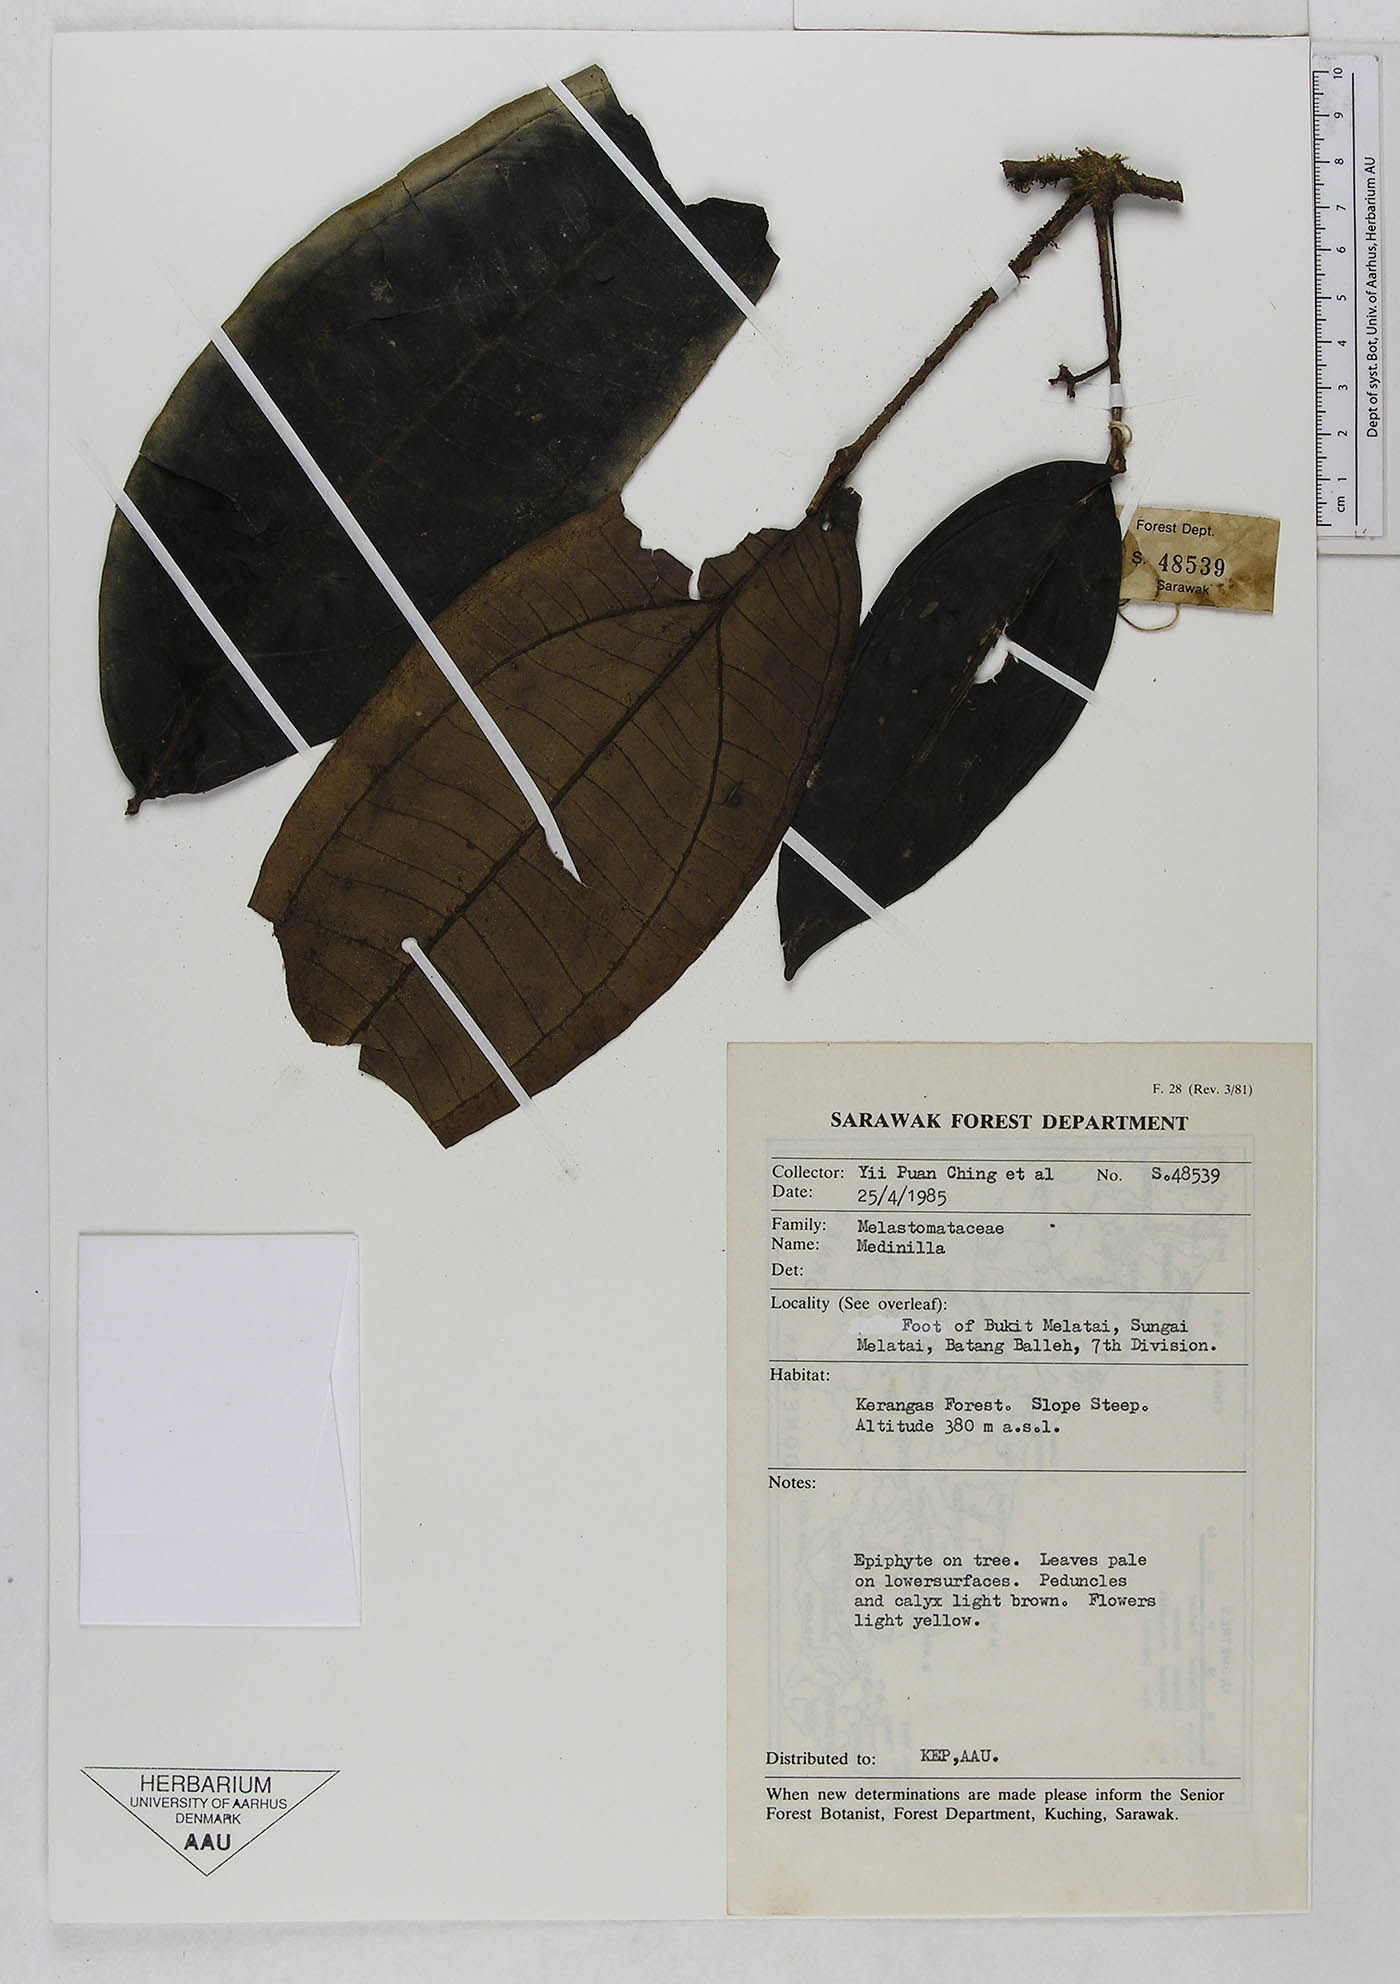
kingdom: Plantae
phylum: Tracheophyta
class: Magnoliopsida
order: Myrtales
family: Melastomataceae
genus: Medinilla
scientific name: Medinilla
